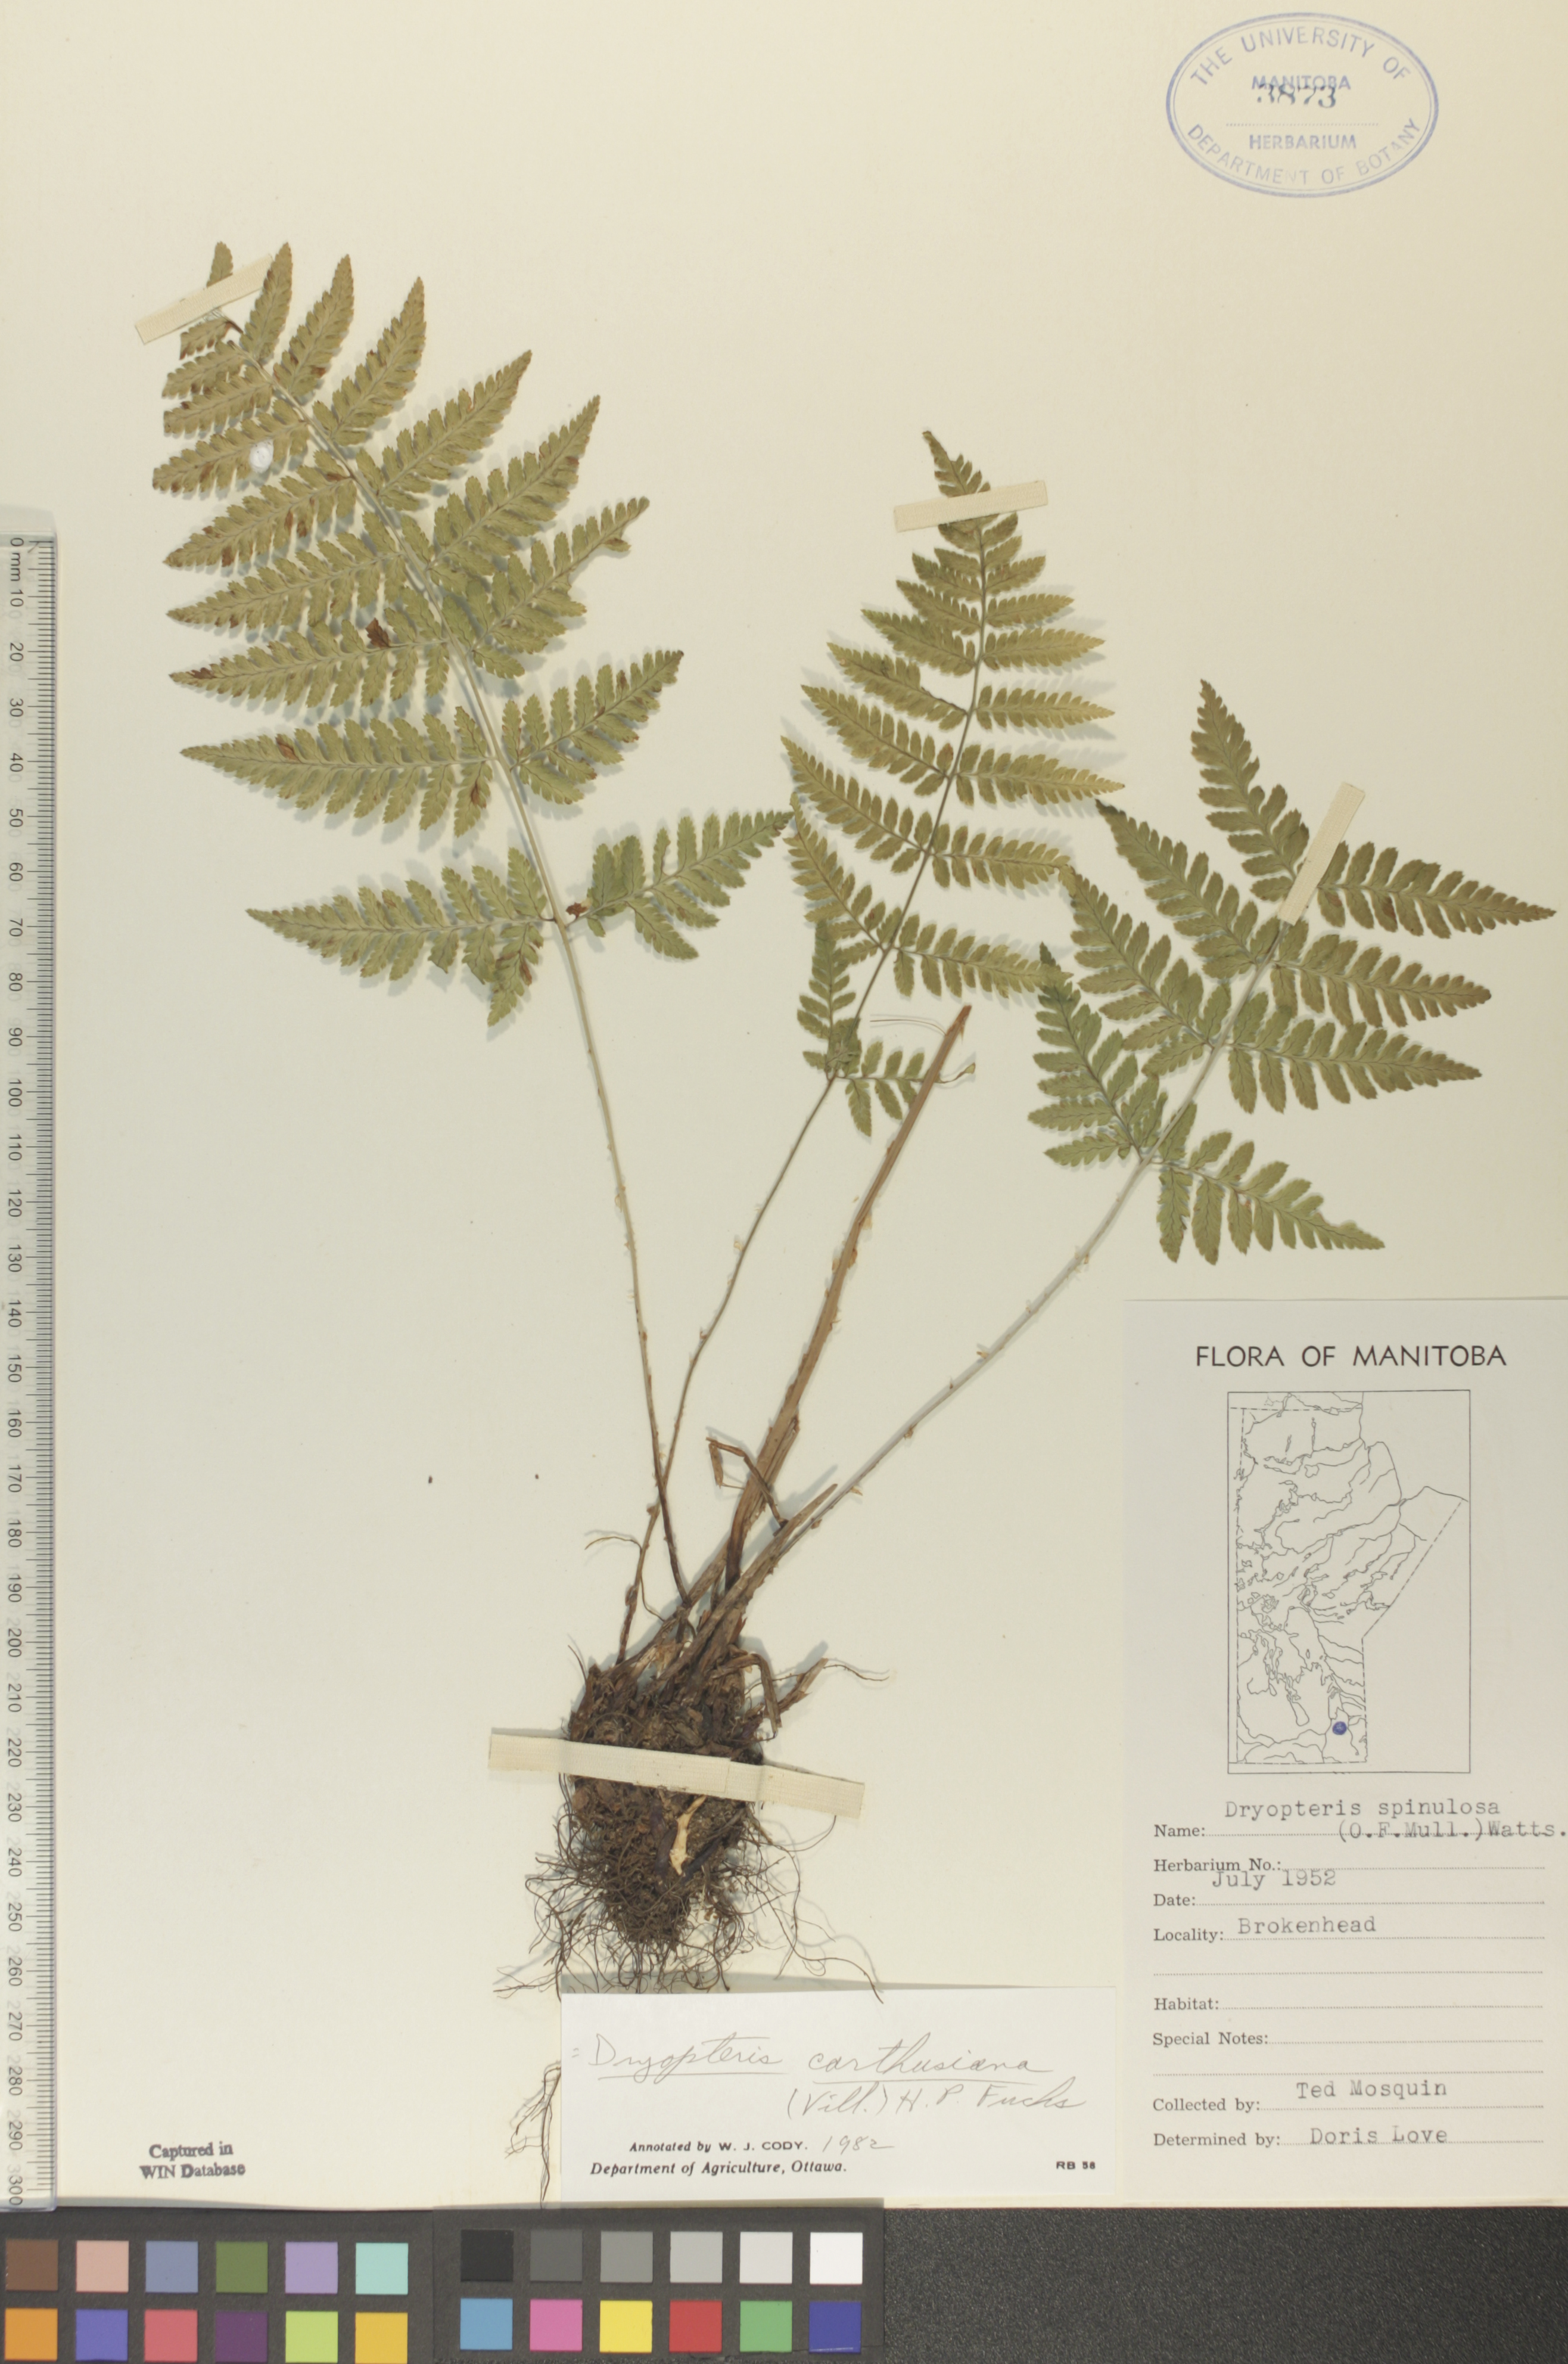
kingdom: Plantae
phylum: Tracheophyta
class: Polypodiopsida
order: Polypodiales
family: Dryopteridaceae
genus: Dryopteris
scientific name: Dryopteris carthusiana
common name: Narrow buckler-fern
